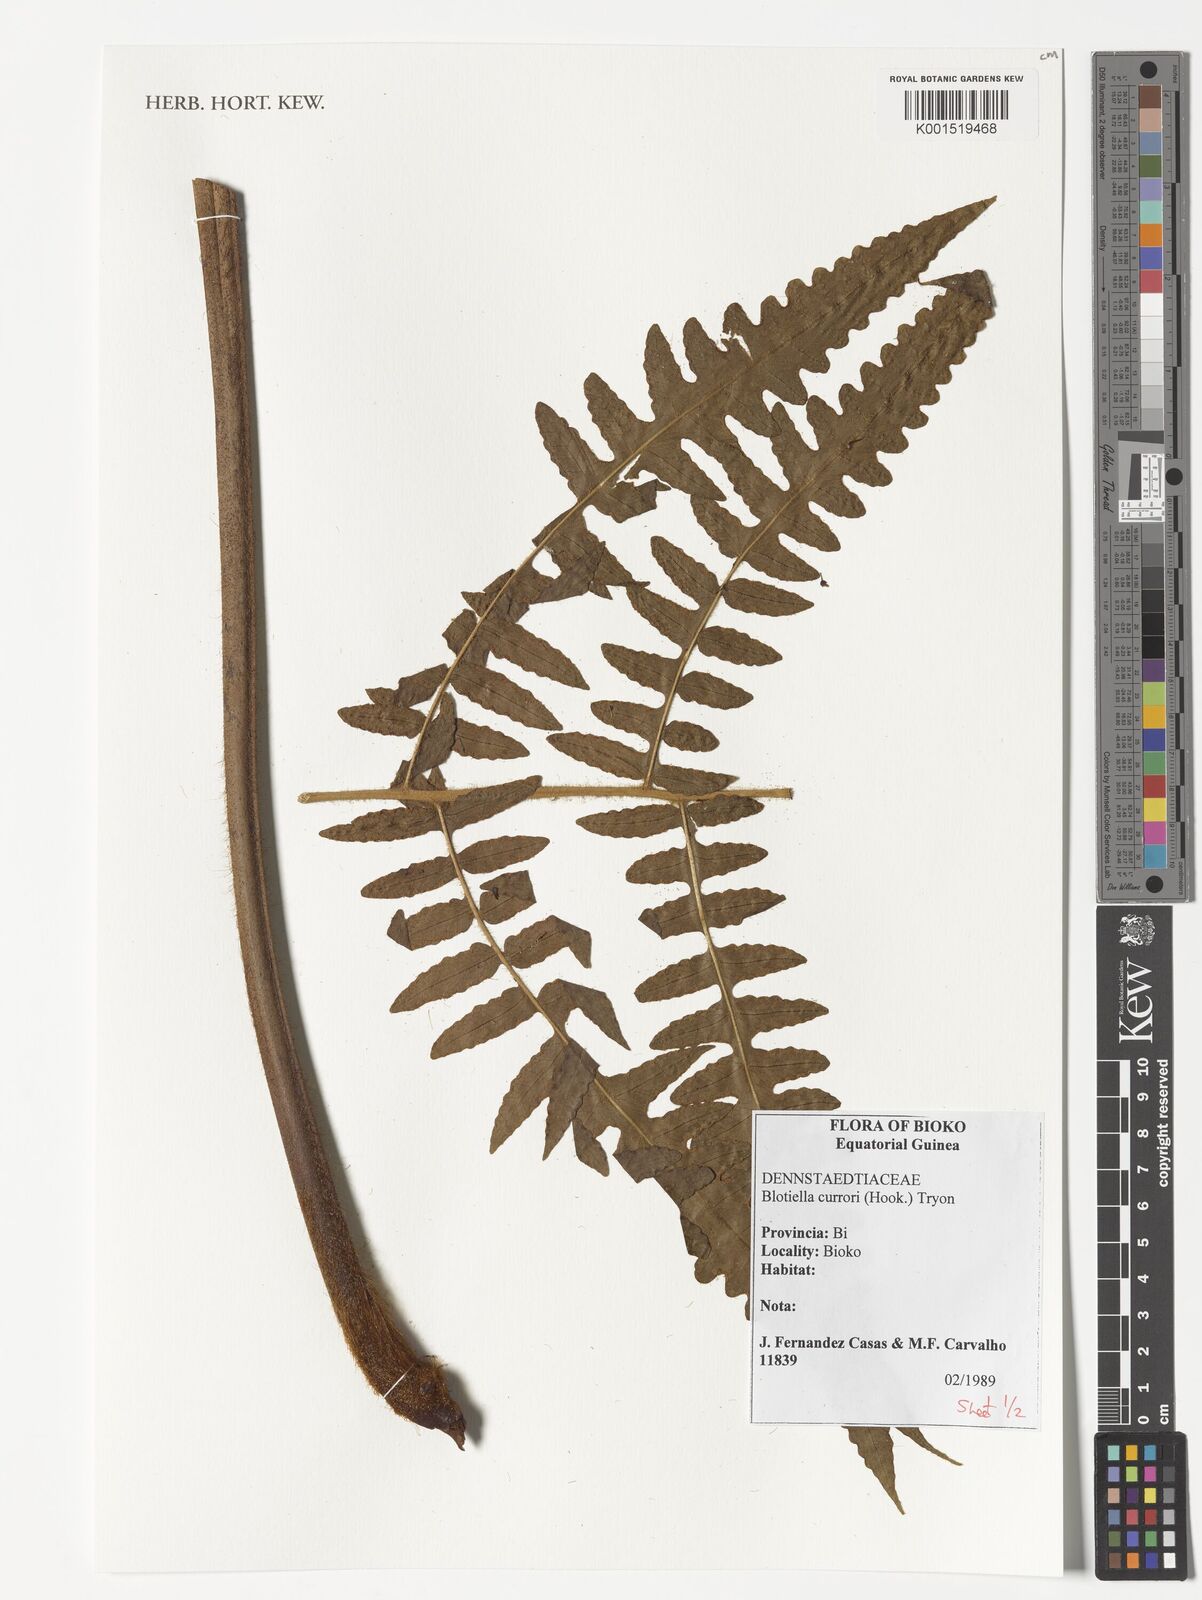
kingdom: Plantae
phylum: Tracheophyta
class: Polypodiopsida
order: Polypodiales
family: Dennstaedtiaceae
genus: Blotiella
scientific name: Blotiella currorii
